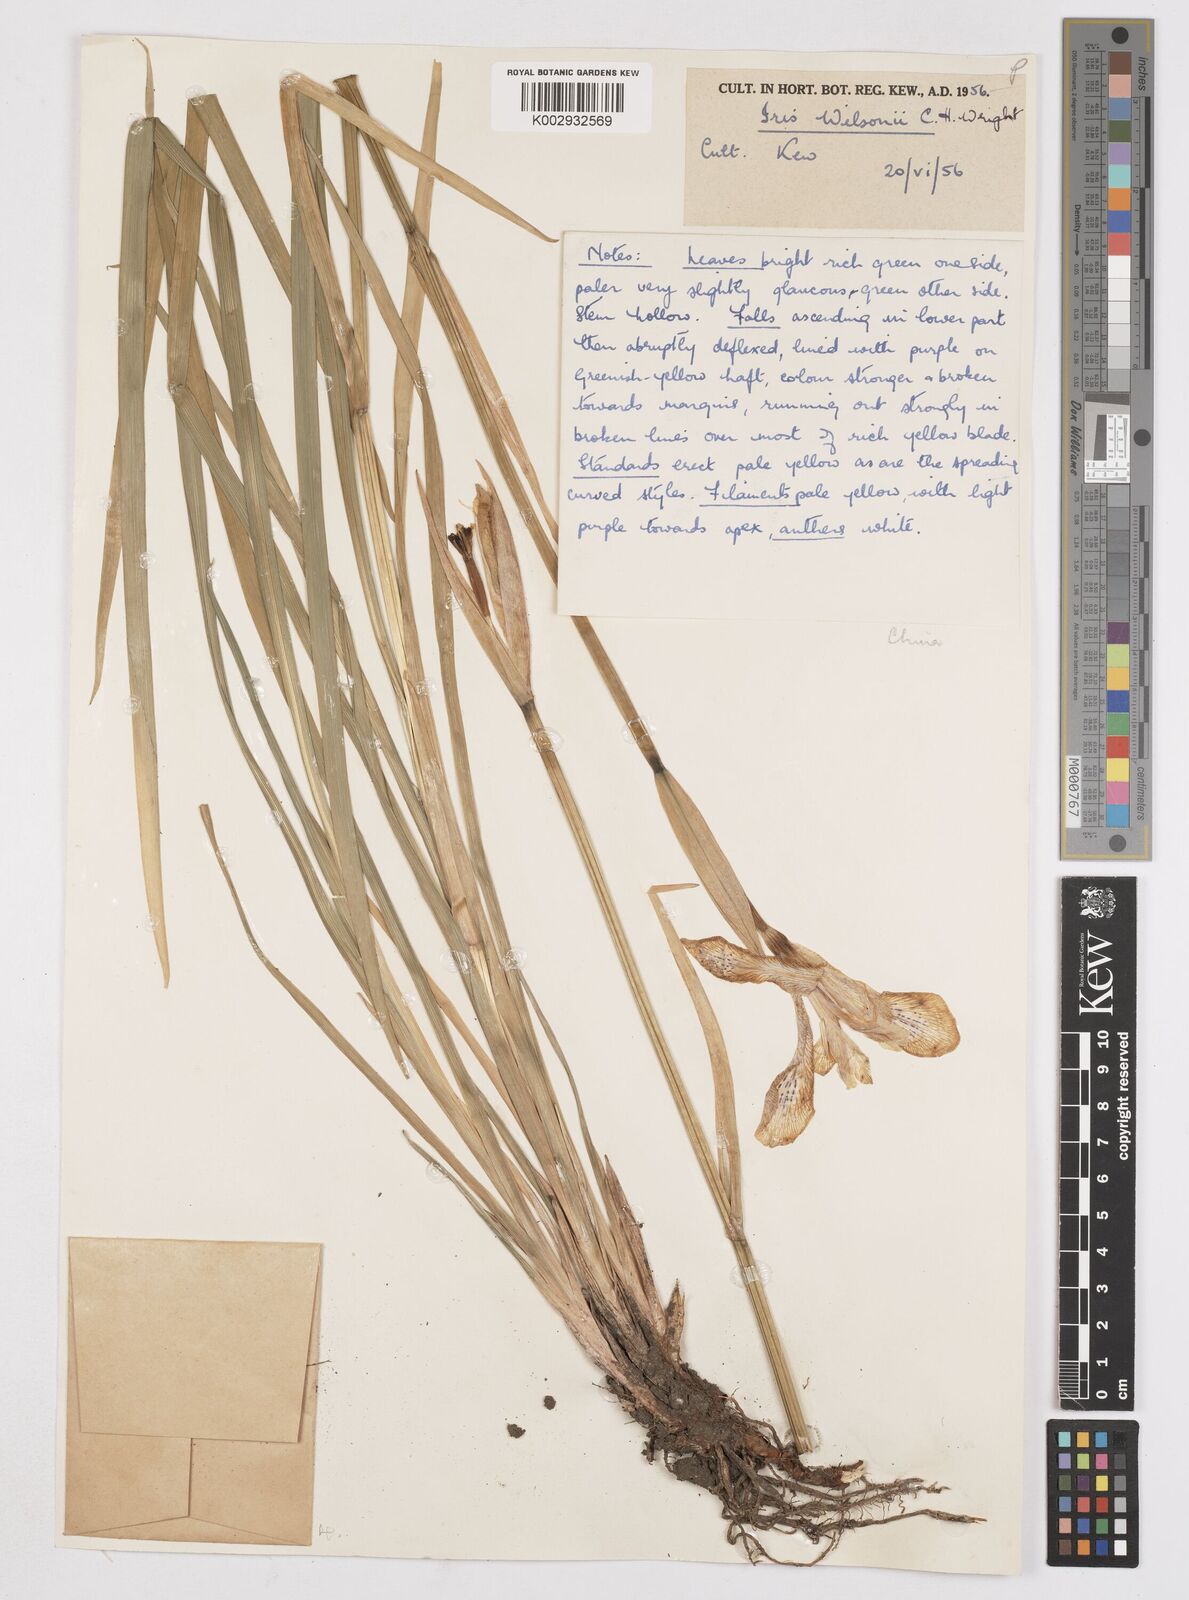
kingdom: Plantae
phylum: Tracheophyta
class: Liliopsida
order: Asparagales
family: Iridaceae
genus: Iris
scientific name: Iris wilsonii
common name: Yellow-flower iris
